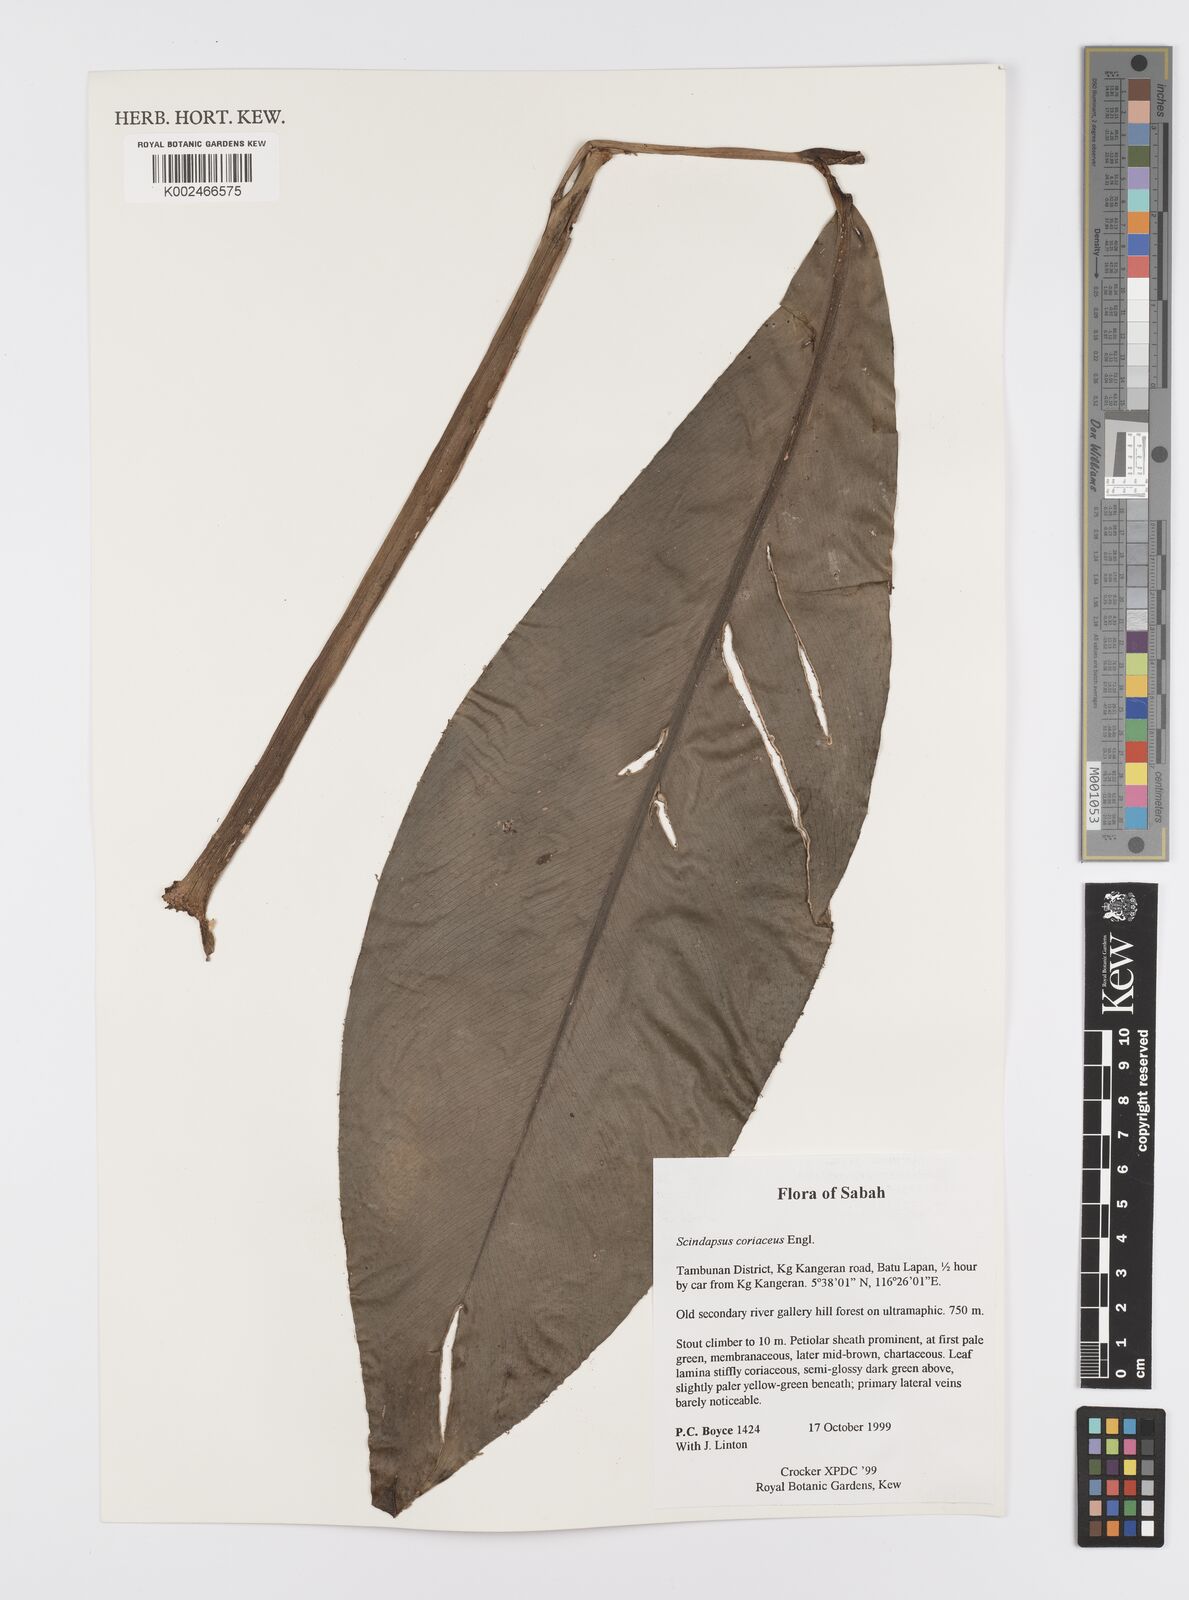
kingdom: Plantae
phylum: Tracheophyta
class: Liliopsida
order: Alismatales
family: Araceae
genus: Scindapsus
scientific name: Scindapsus coriaceus
